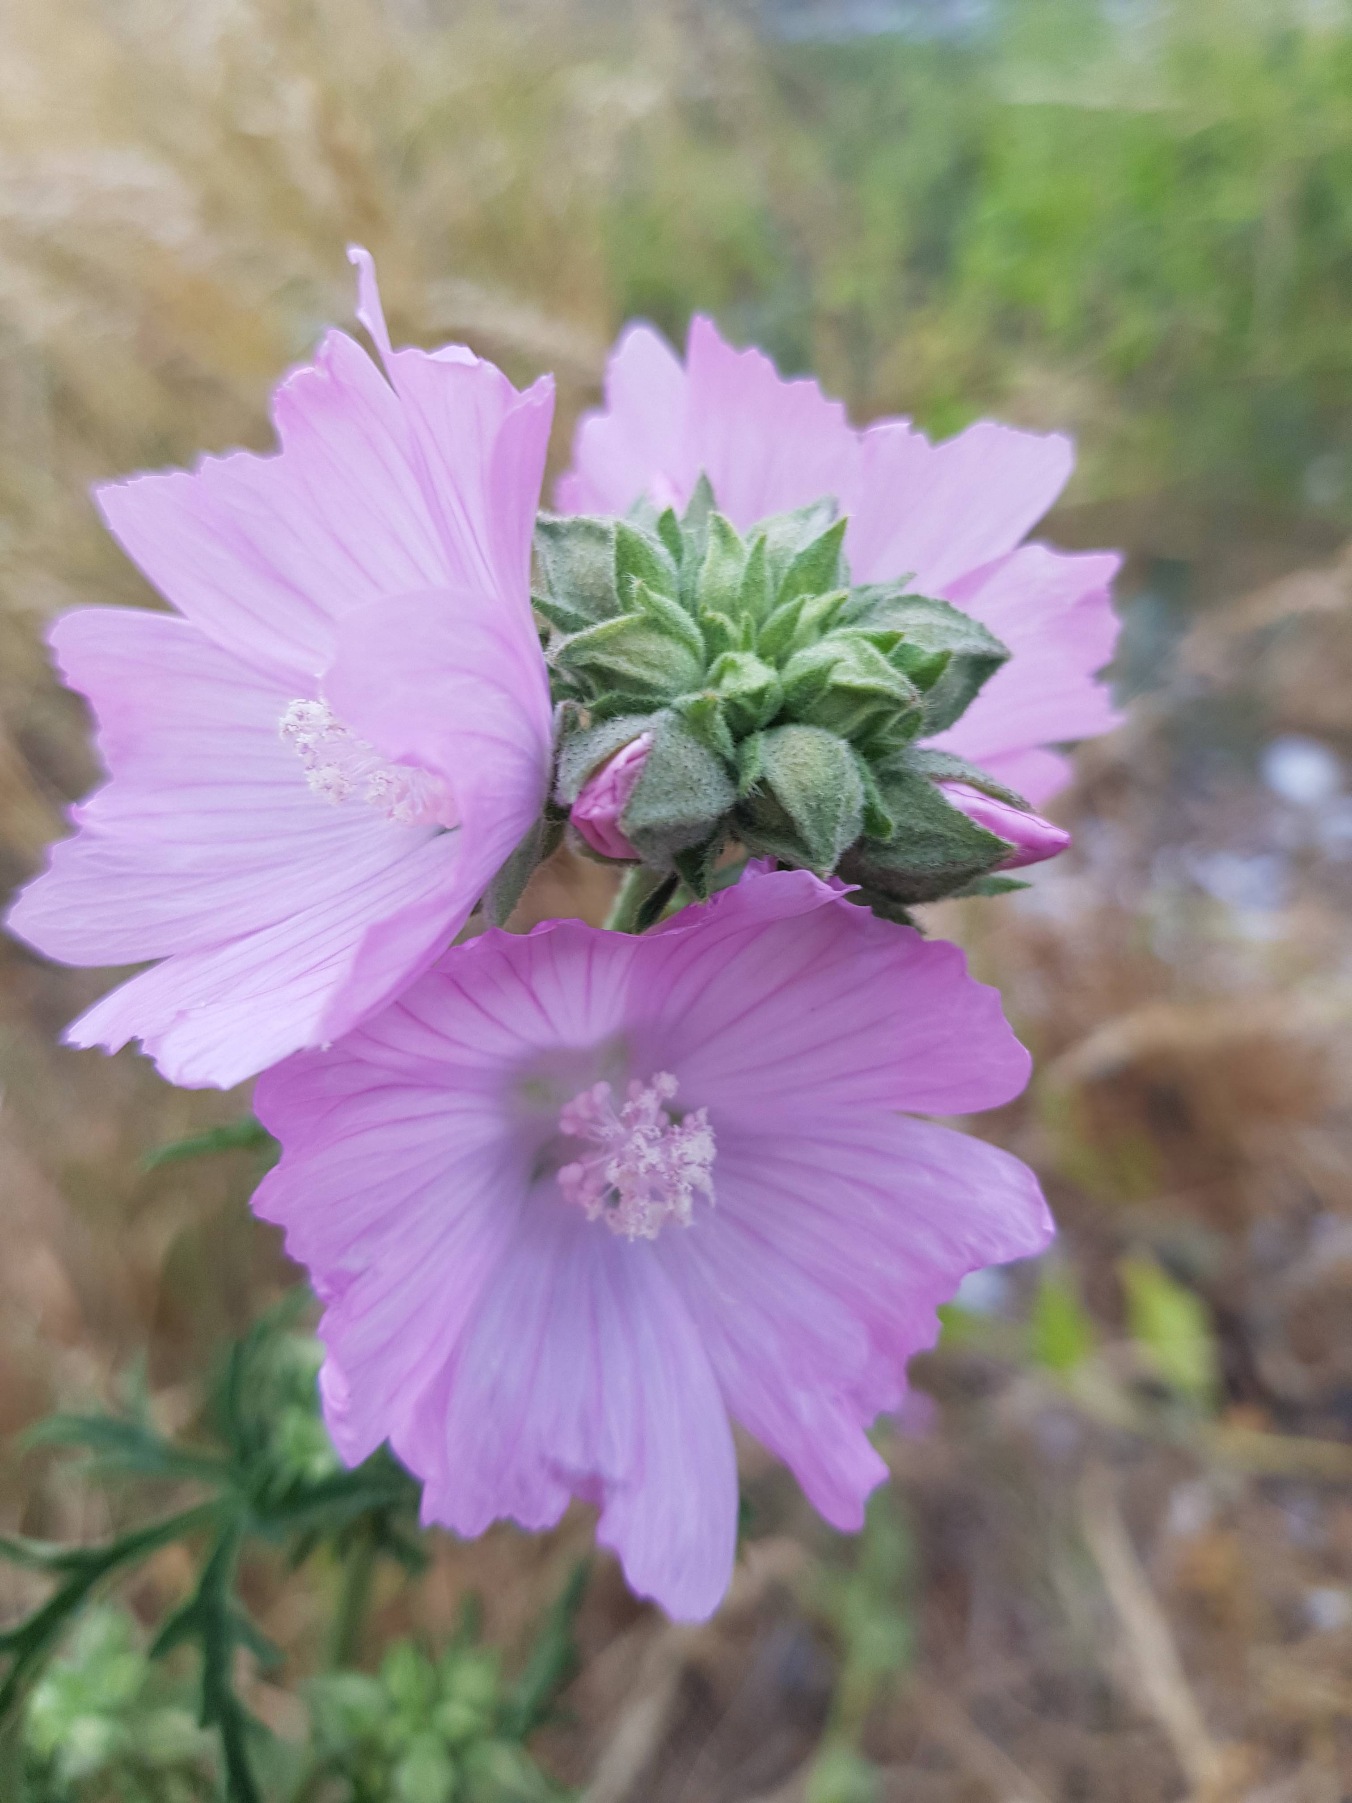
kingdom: Plantae
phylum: Tracheophyta
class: Magnoliopsida
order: Malvales
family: Malvaceae
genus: Malva
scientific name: Malva alcea
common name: Rosen-katost
